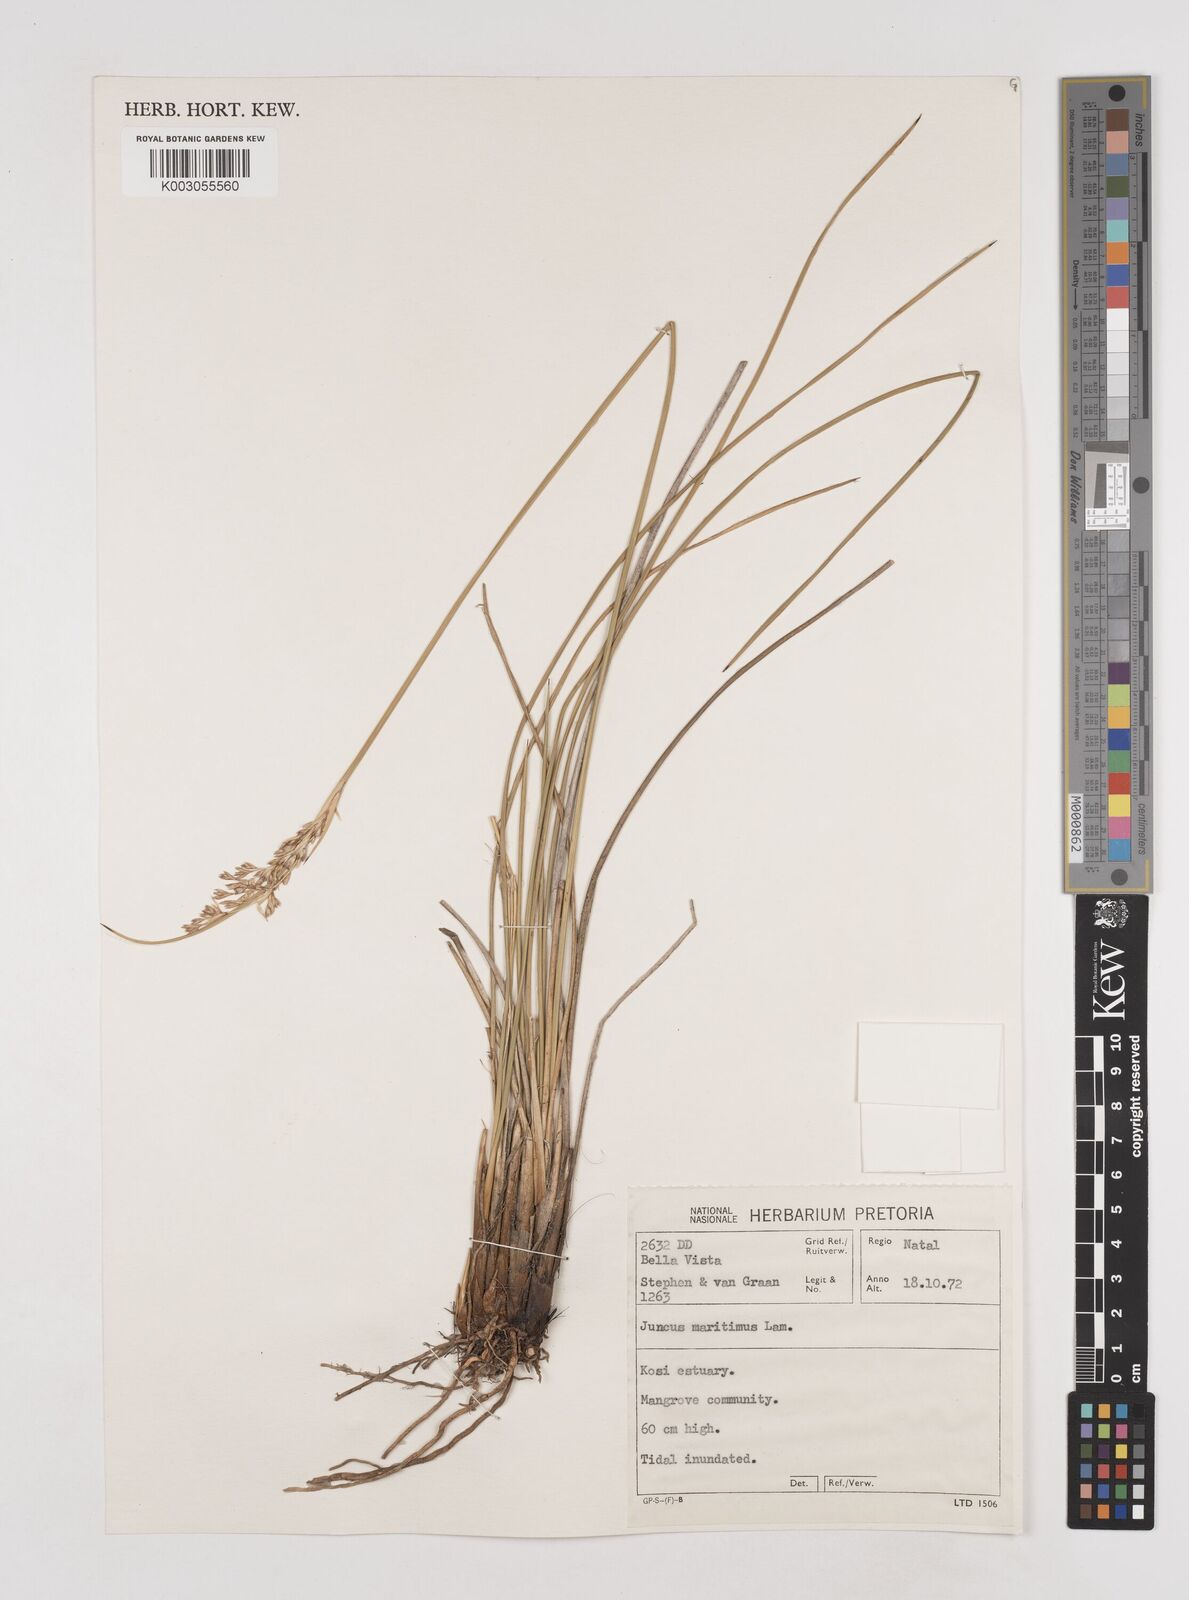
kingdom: Plantae
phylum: Tracheophyta
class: Liliopsida
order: Poales
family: Juncaceae
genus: Juncus
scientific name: Juncus kraussii
